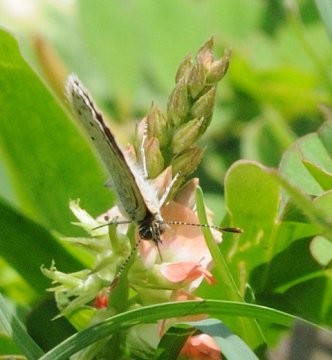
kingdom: Animalia
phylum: Arthropoda
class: Insecta
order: Lepidoptera
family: Lycaenidae
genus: Zizeeria
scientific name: Zizeeria knysna
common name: Dark Grass Blue
